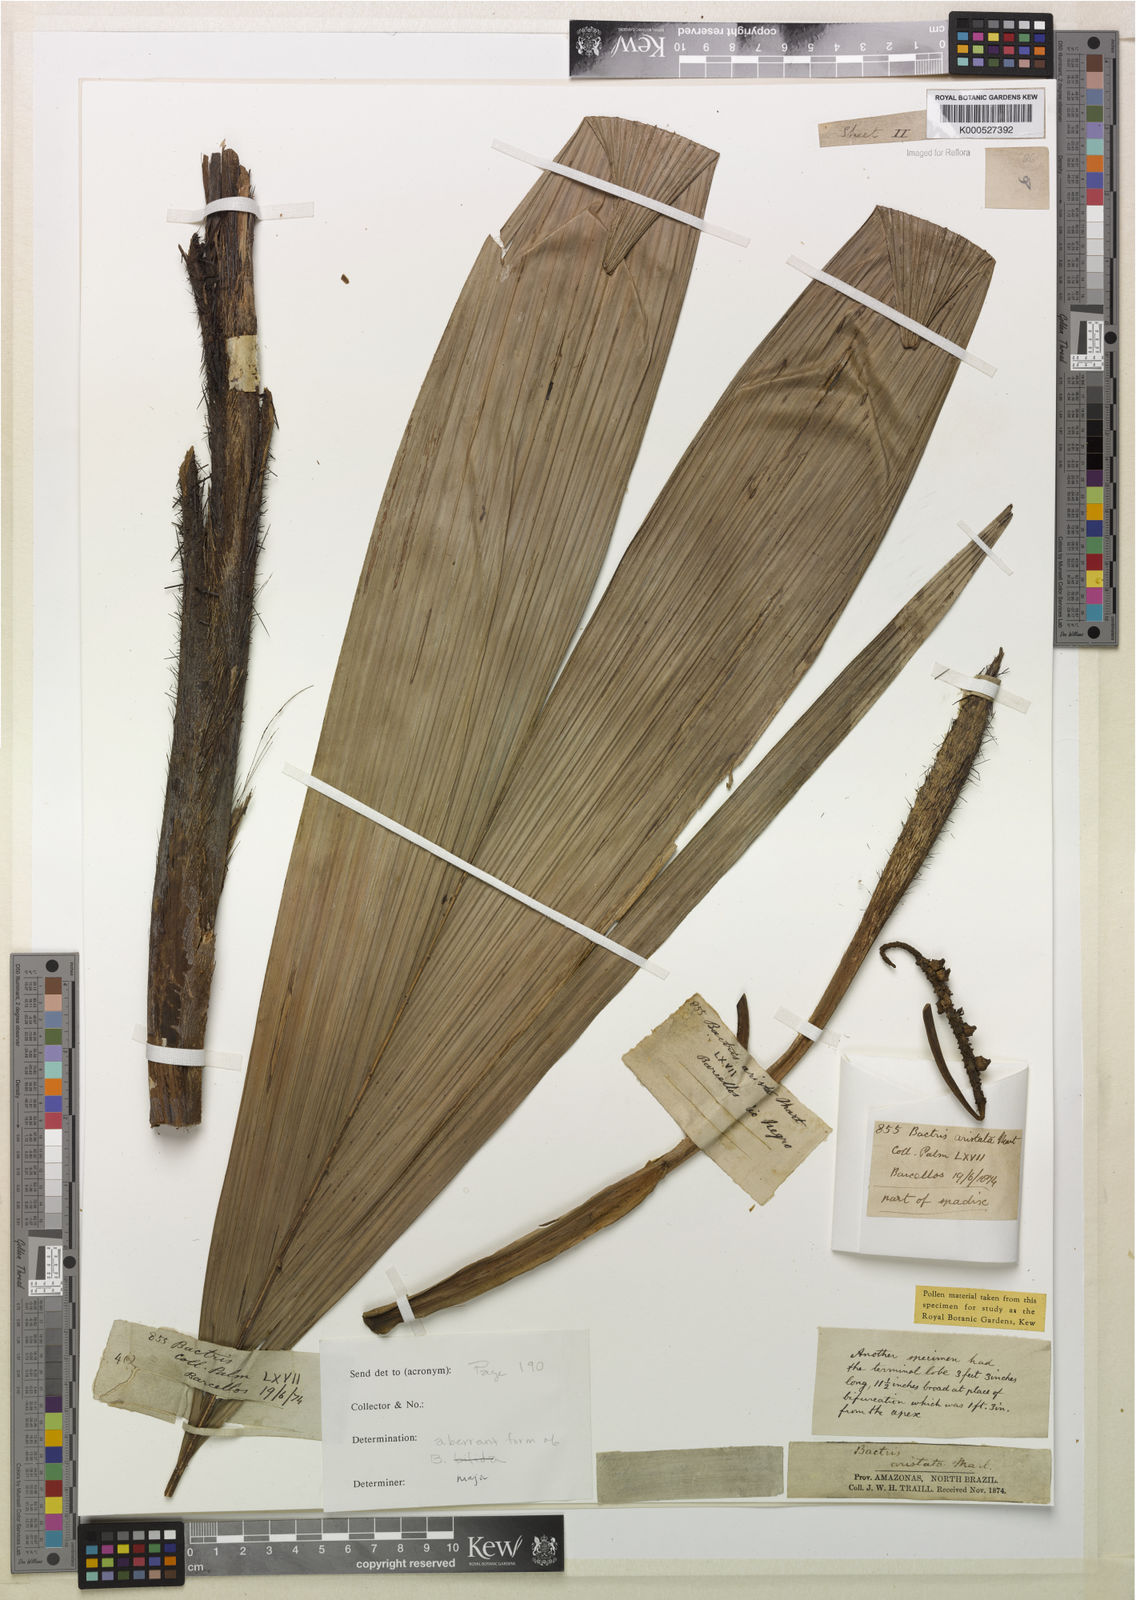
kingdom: Plantae
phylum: Tracheophyta
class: Liliopsida
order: Arecales
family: Arecaceae
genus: Bactris
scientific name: Bactris fissifrons
